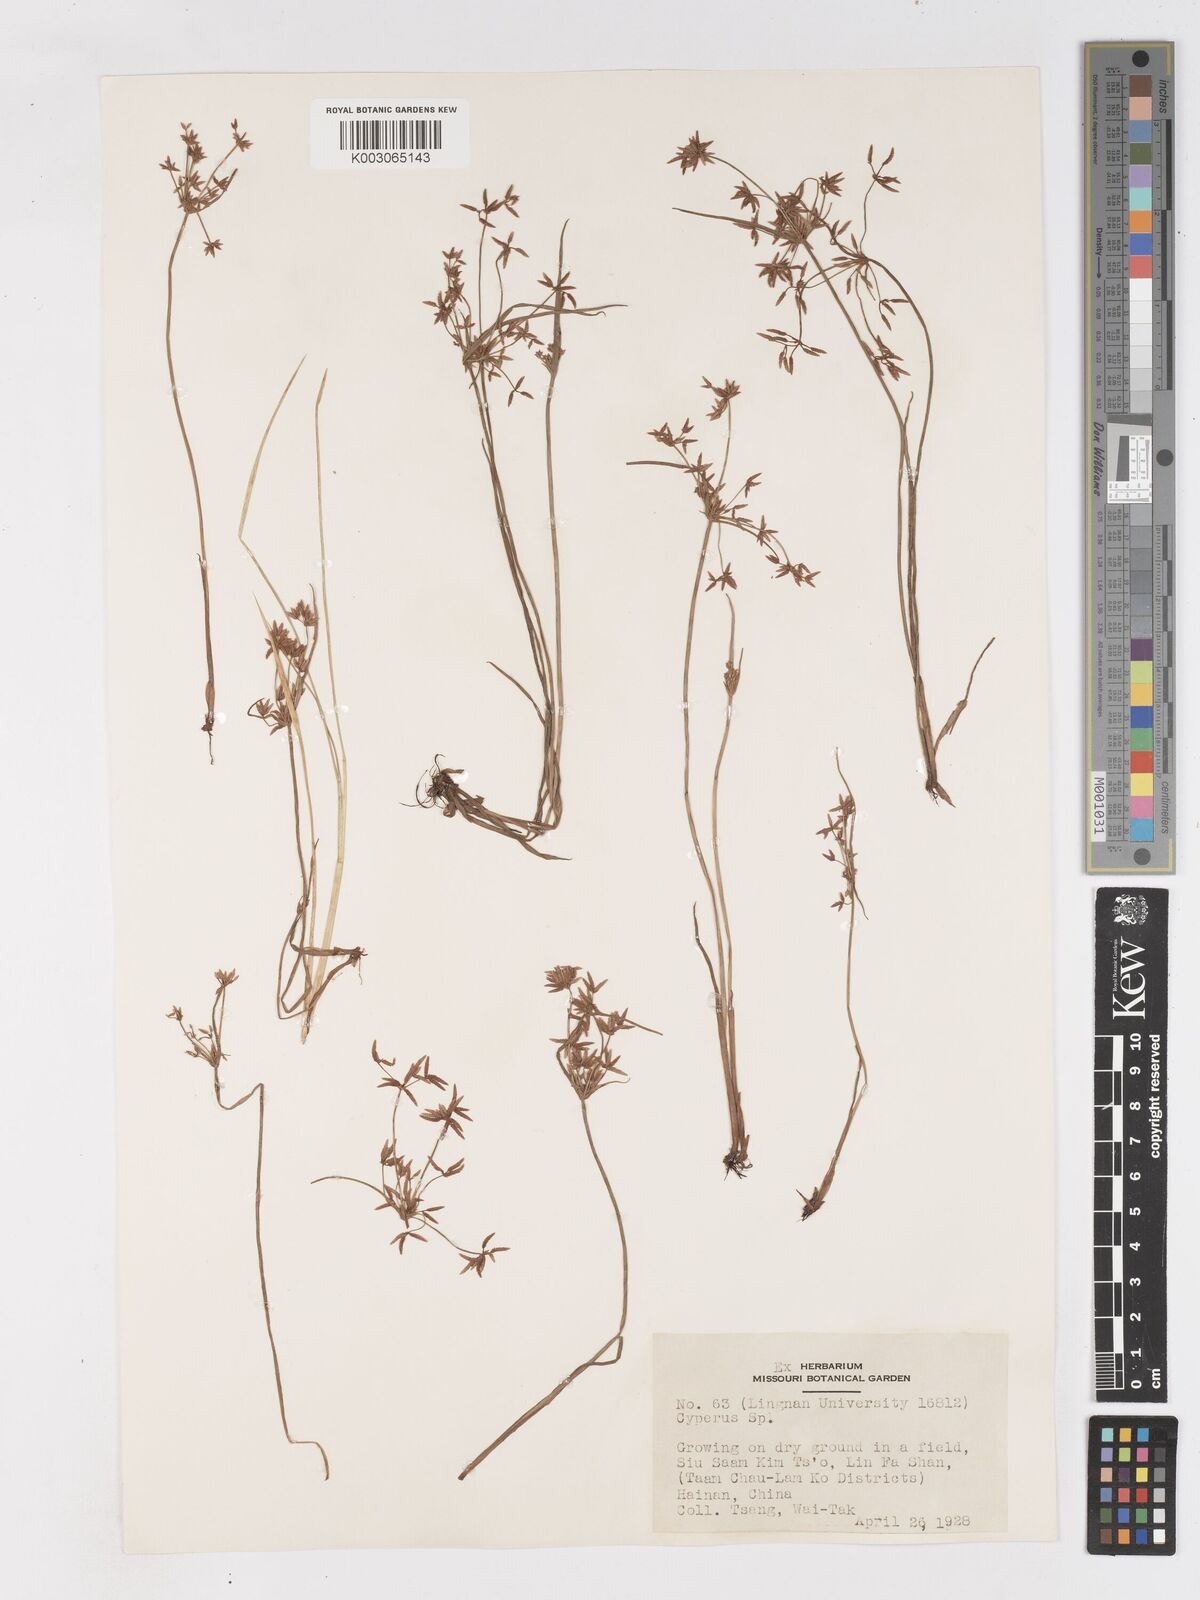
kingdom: Plantae
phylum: Tracheophyta
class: Liliopsida
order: Poales
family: Cyperaceae
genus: Cyperus
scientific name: Cyperus haspan
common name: Haspan flatsedge
